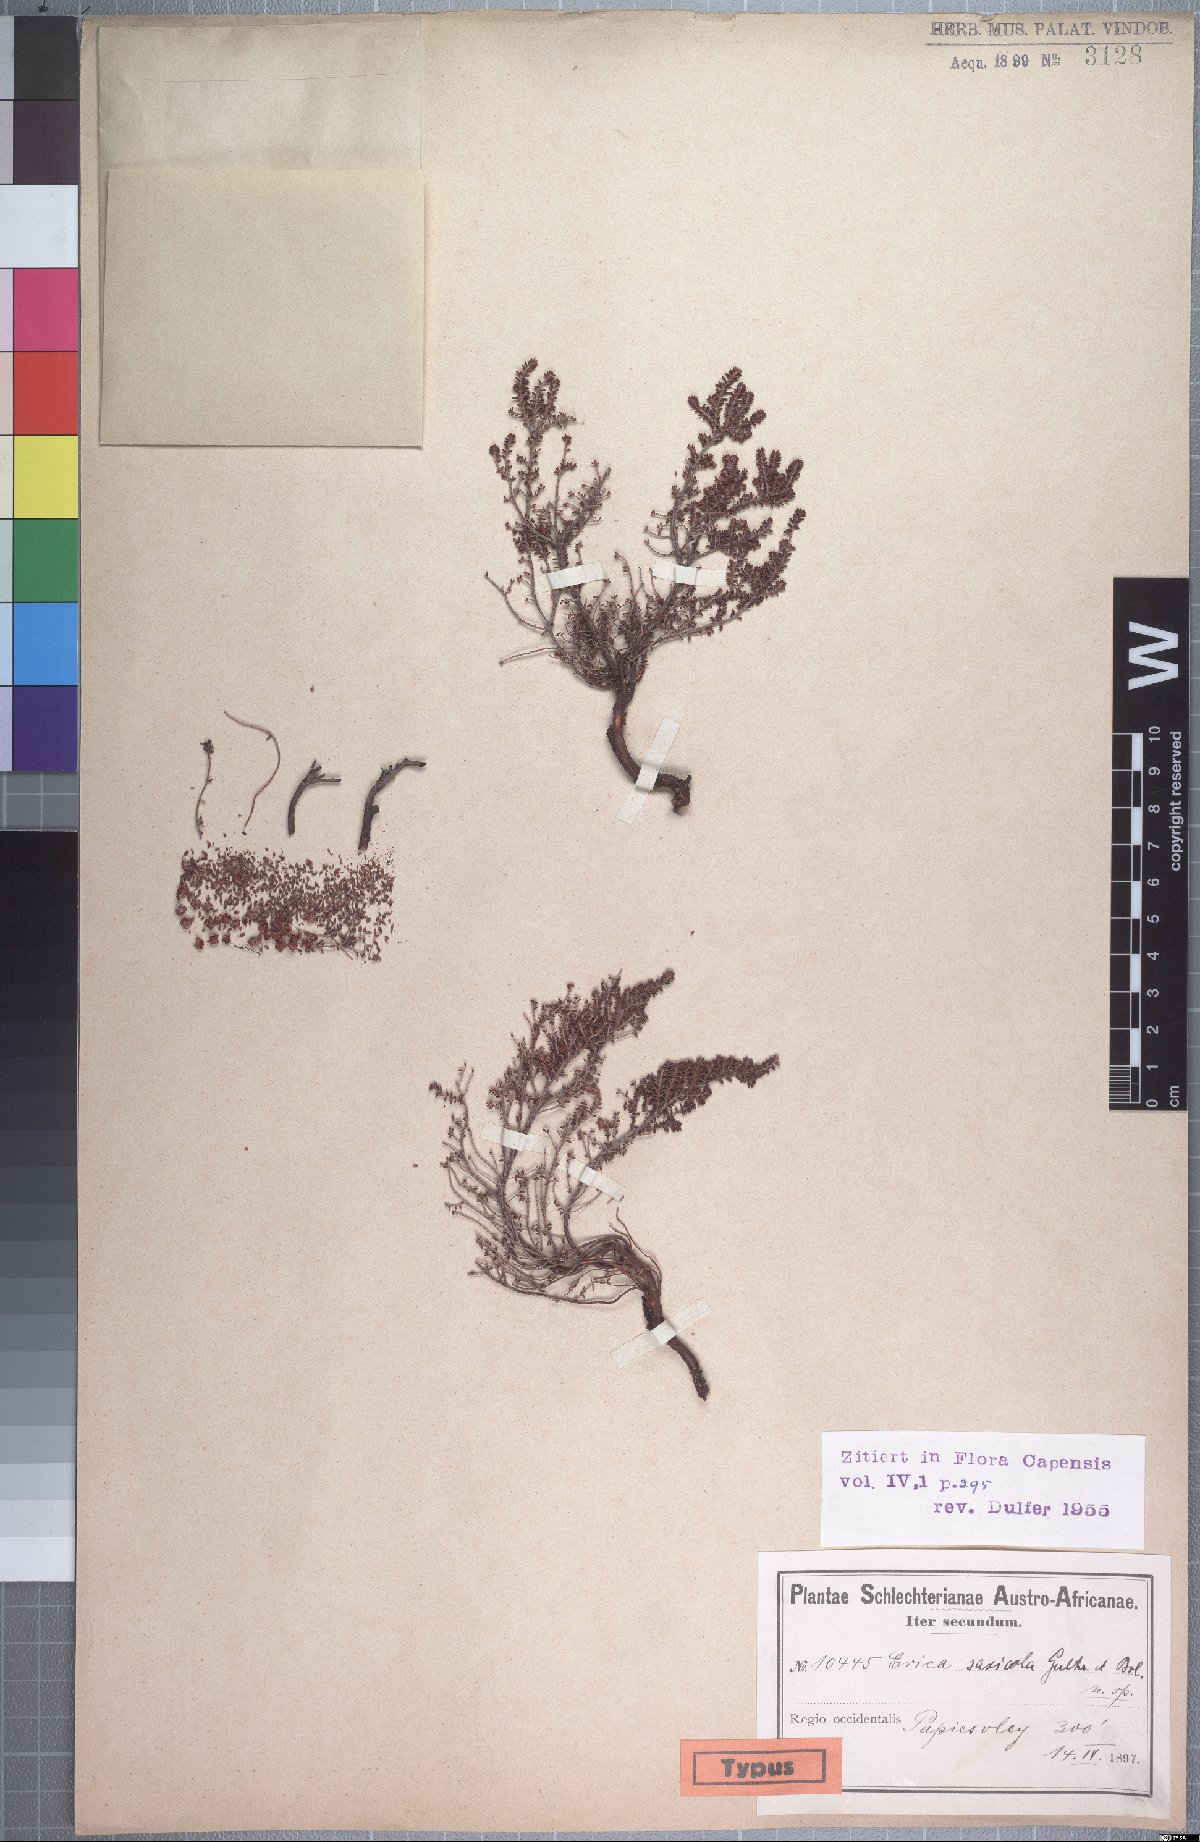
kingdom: Plantae
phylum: Tracheophyta
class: Magnoliopsida
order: Ericales
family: Ericaceae
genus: Erica
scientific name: Erica saxicola
